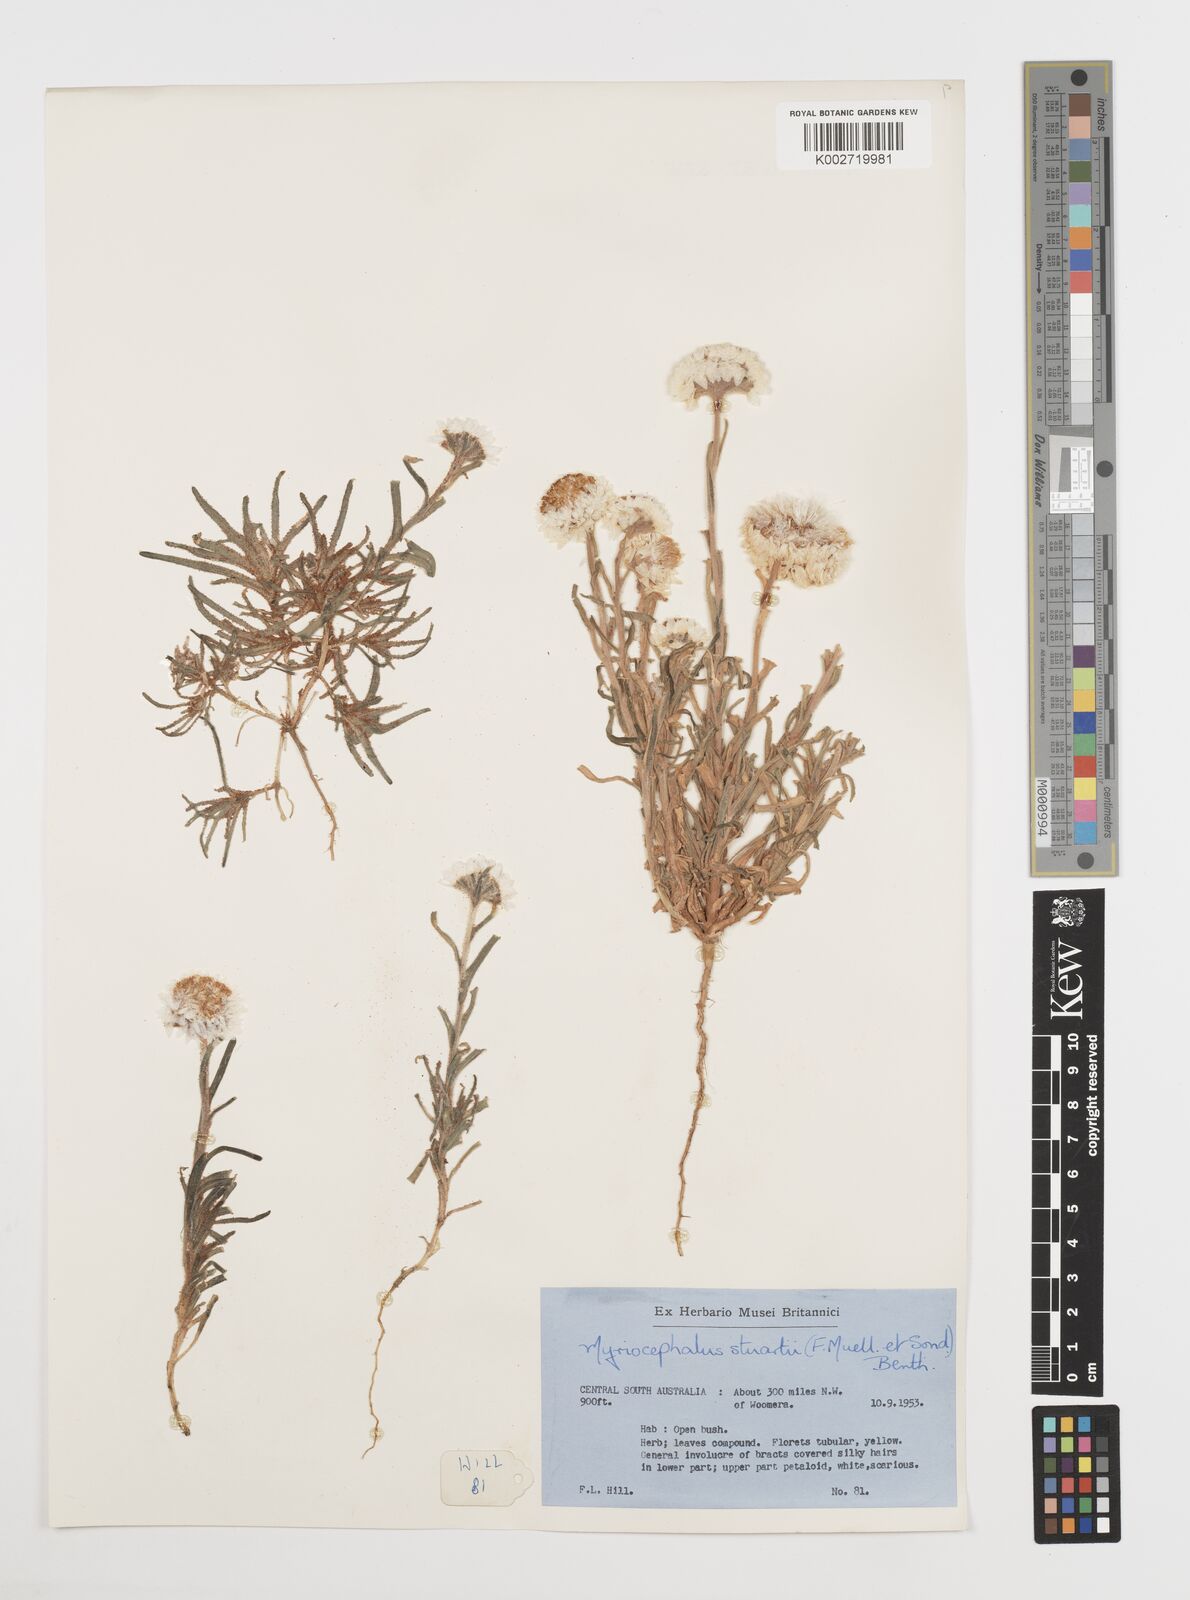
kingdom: Plantae
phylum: Tracheophyta
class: Magnoliopsida
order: Asterales
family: Asteraceae
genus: Polycalymma
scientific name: Polycalymma stuartii
